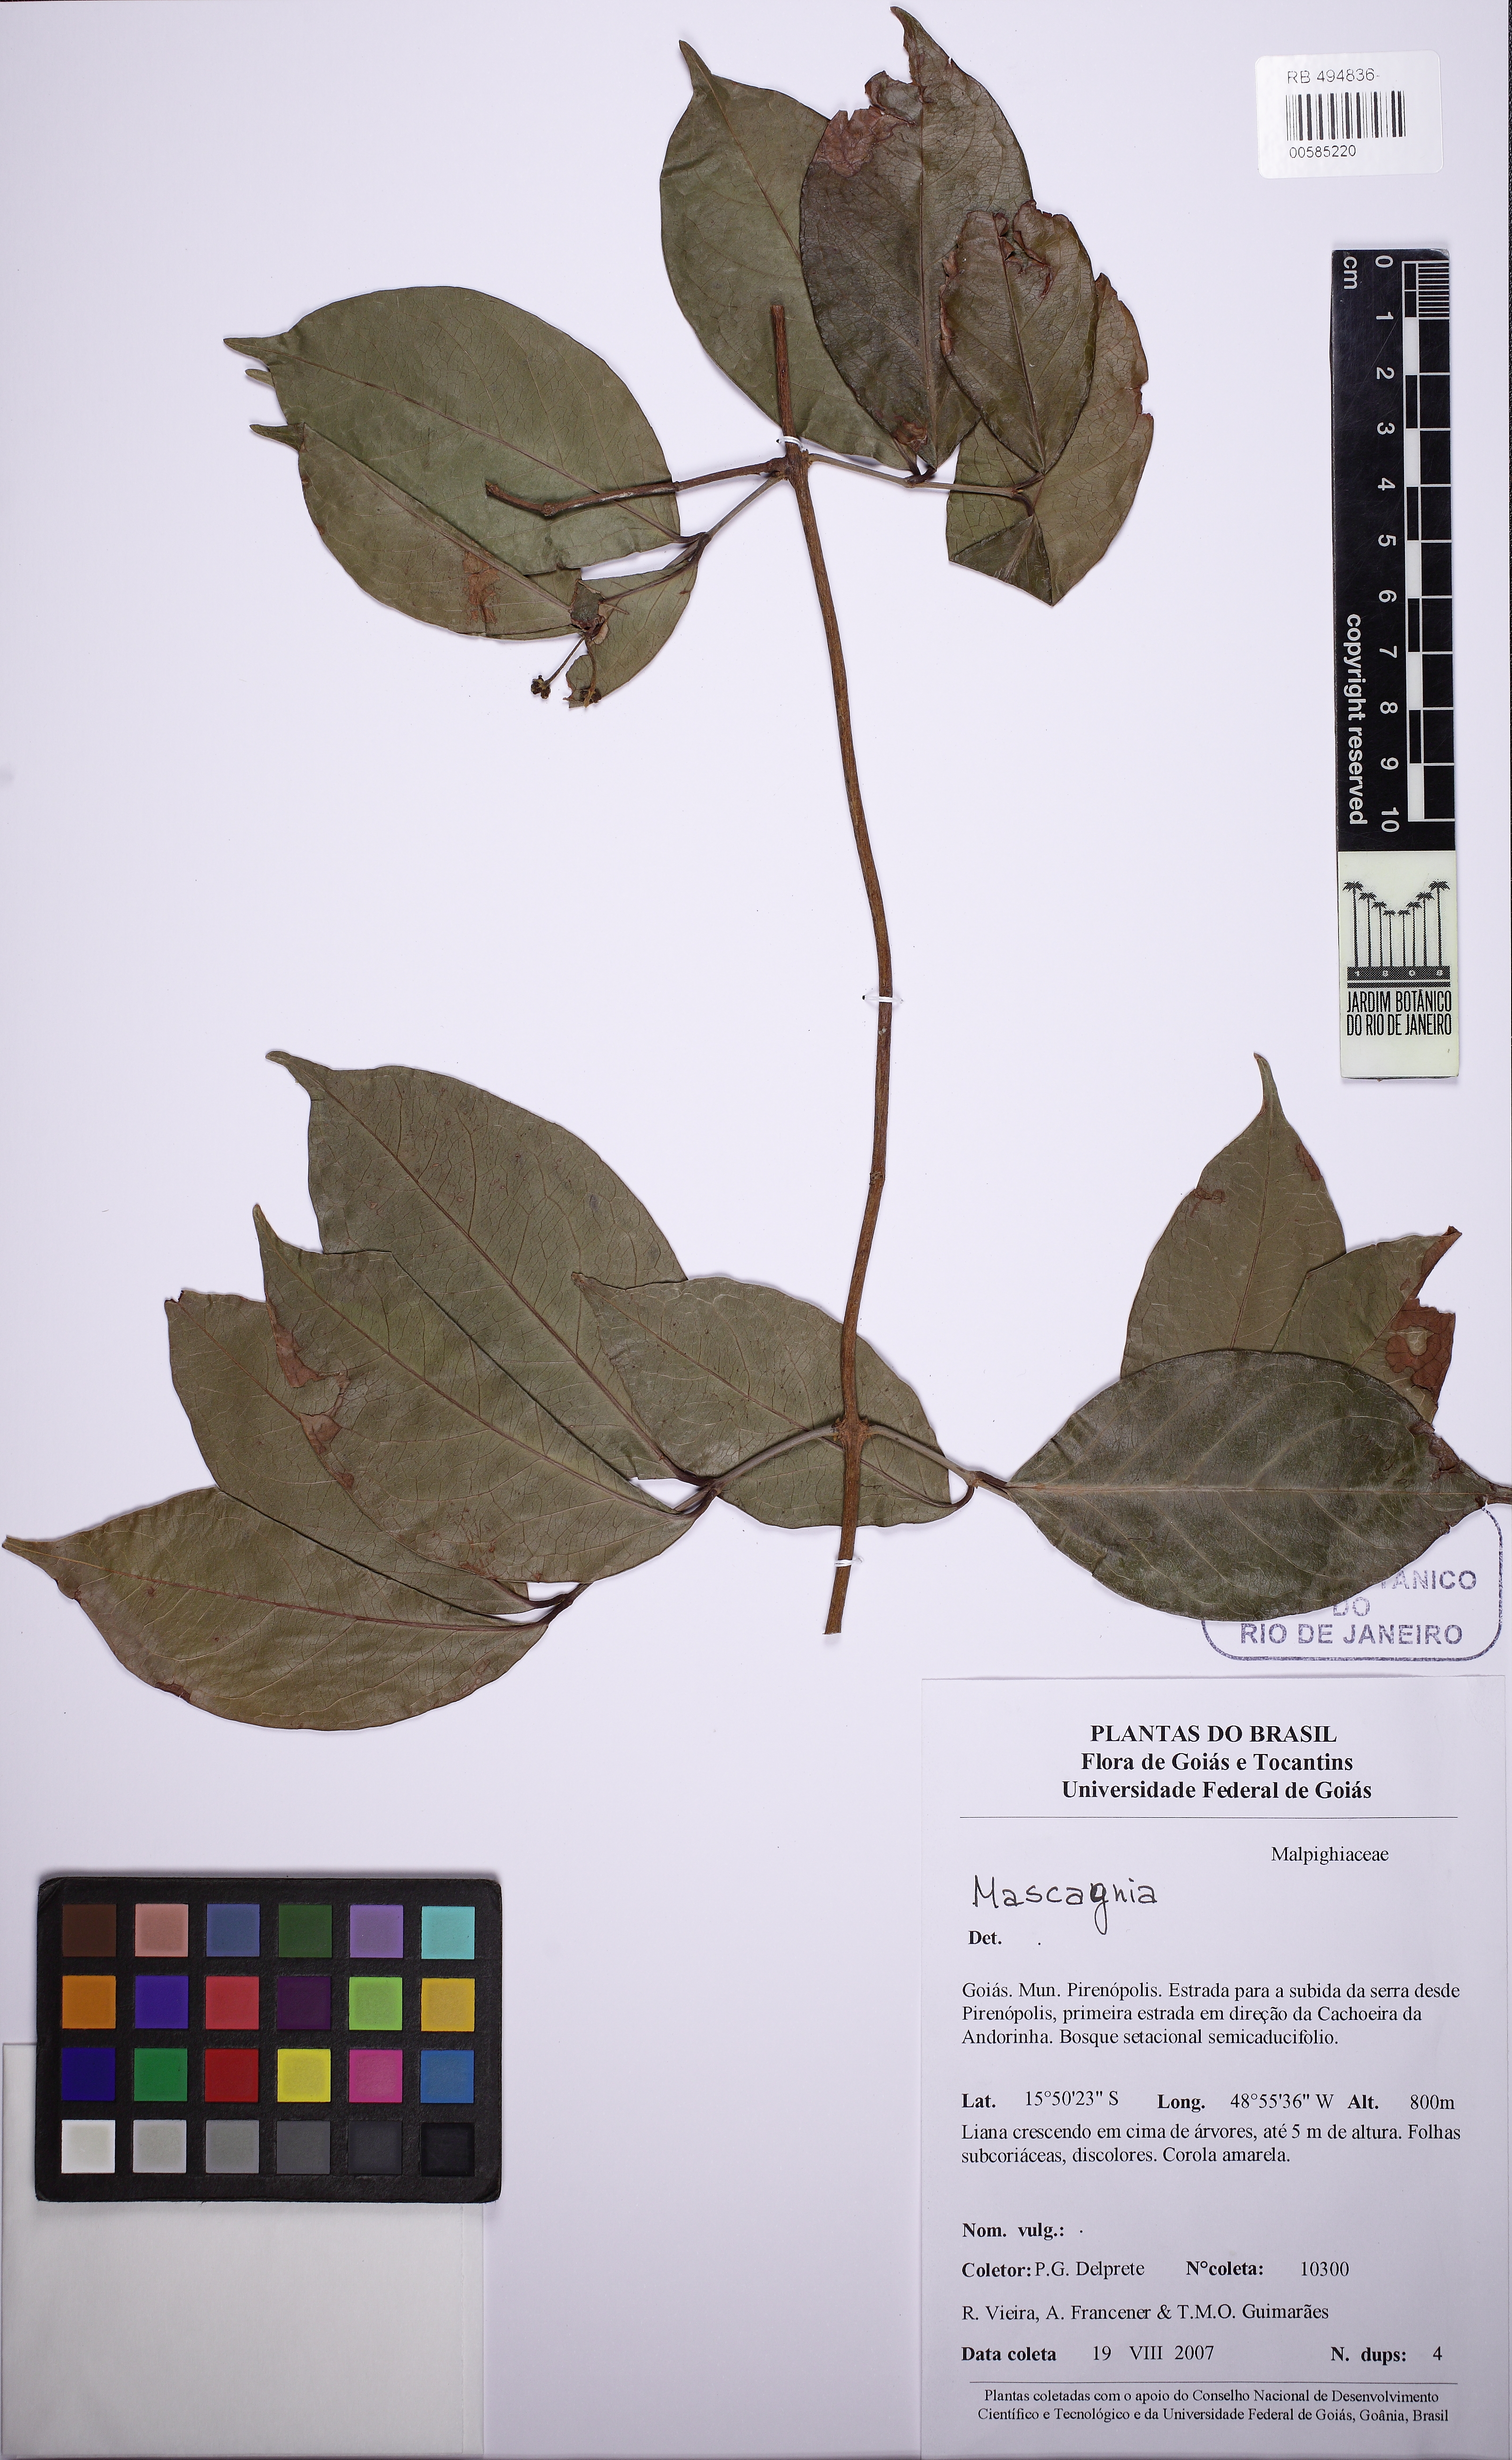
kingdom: Plantae
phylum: Tracheophyta
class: Magnoliopsida
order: Malpighiales
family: Malpighiaceae
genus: Diplopterys
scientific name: Diplopterys
